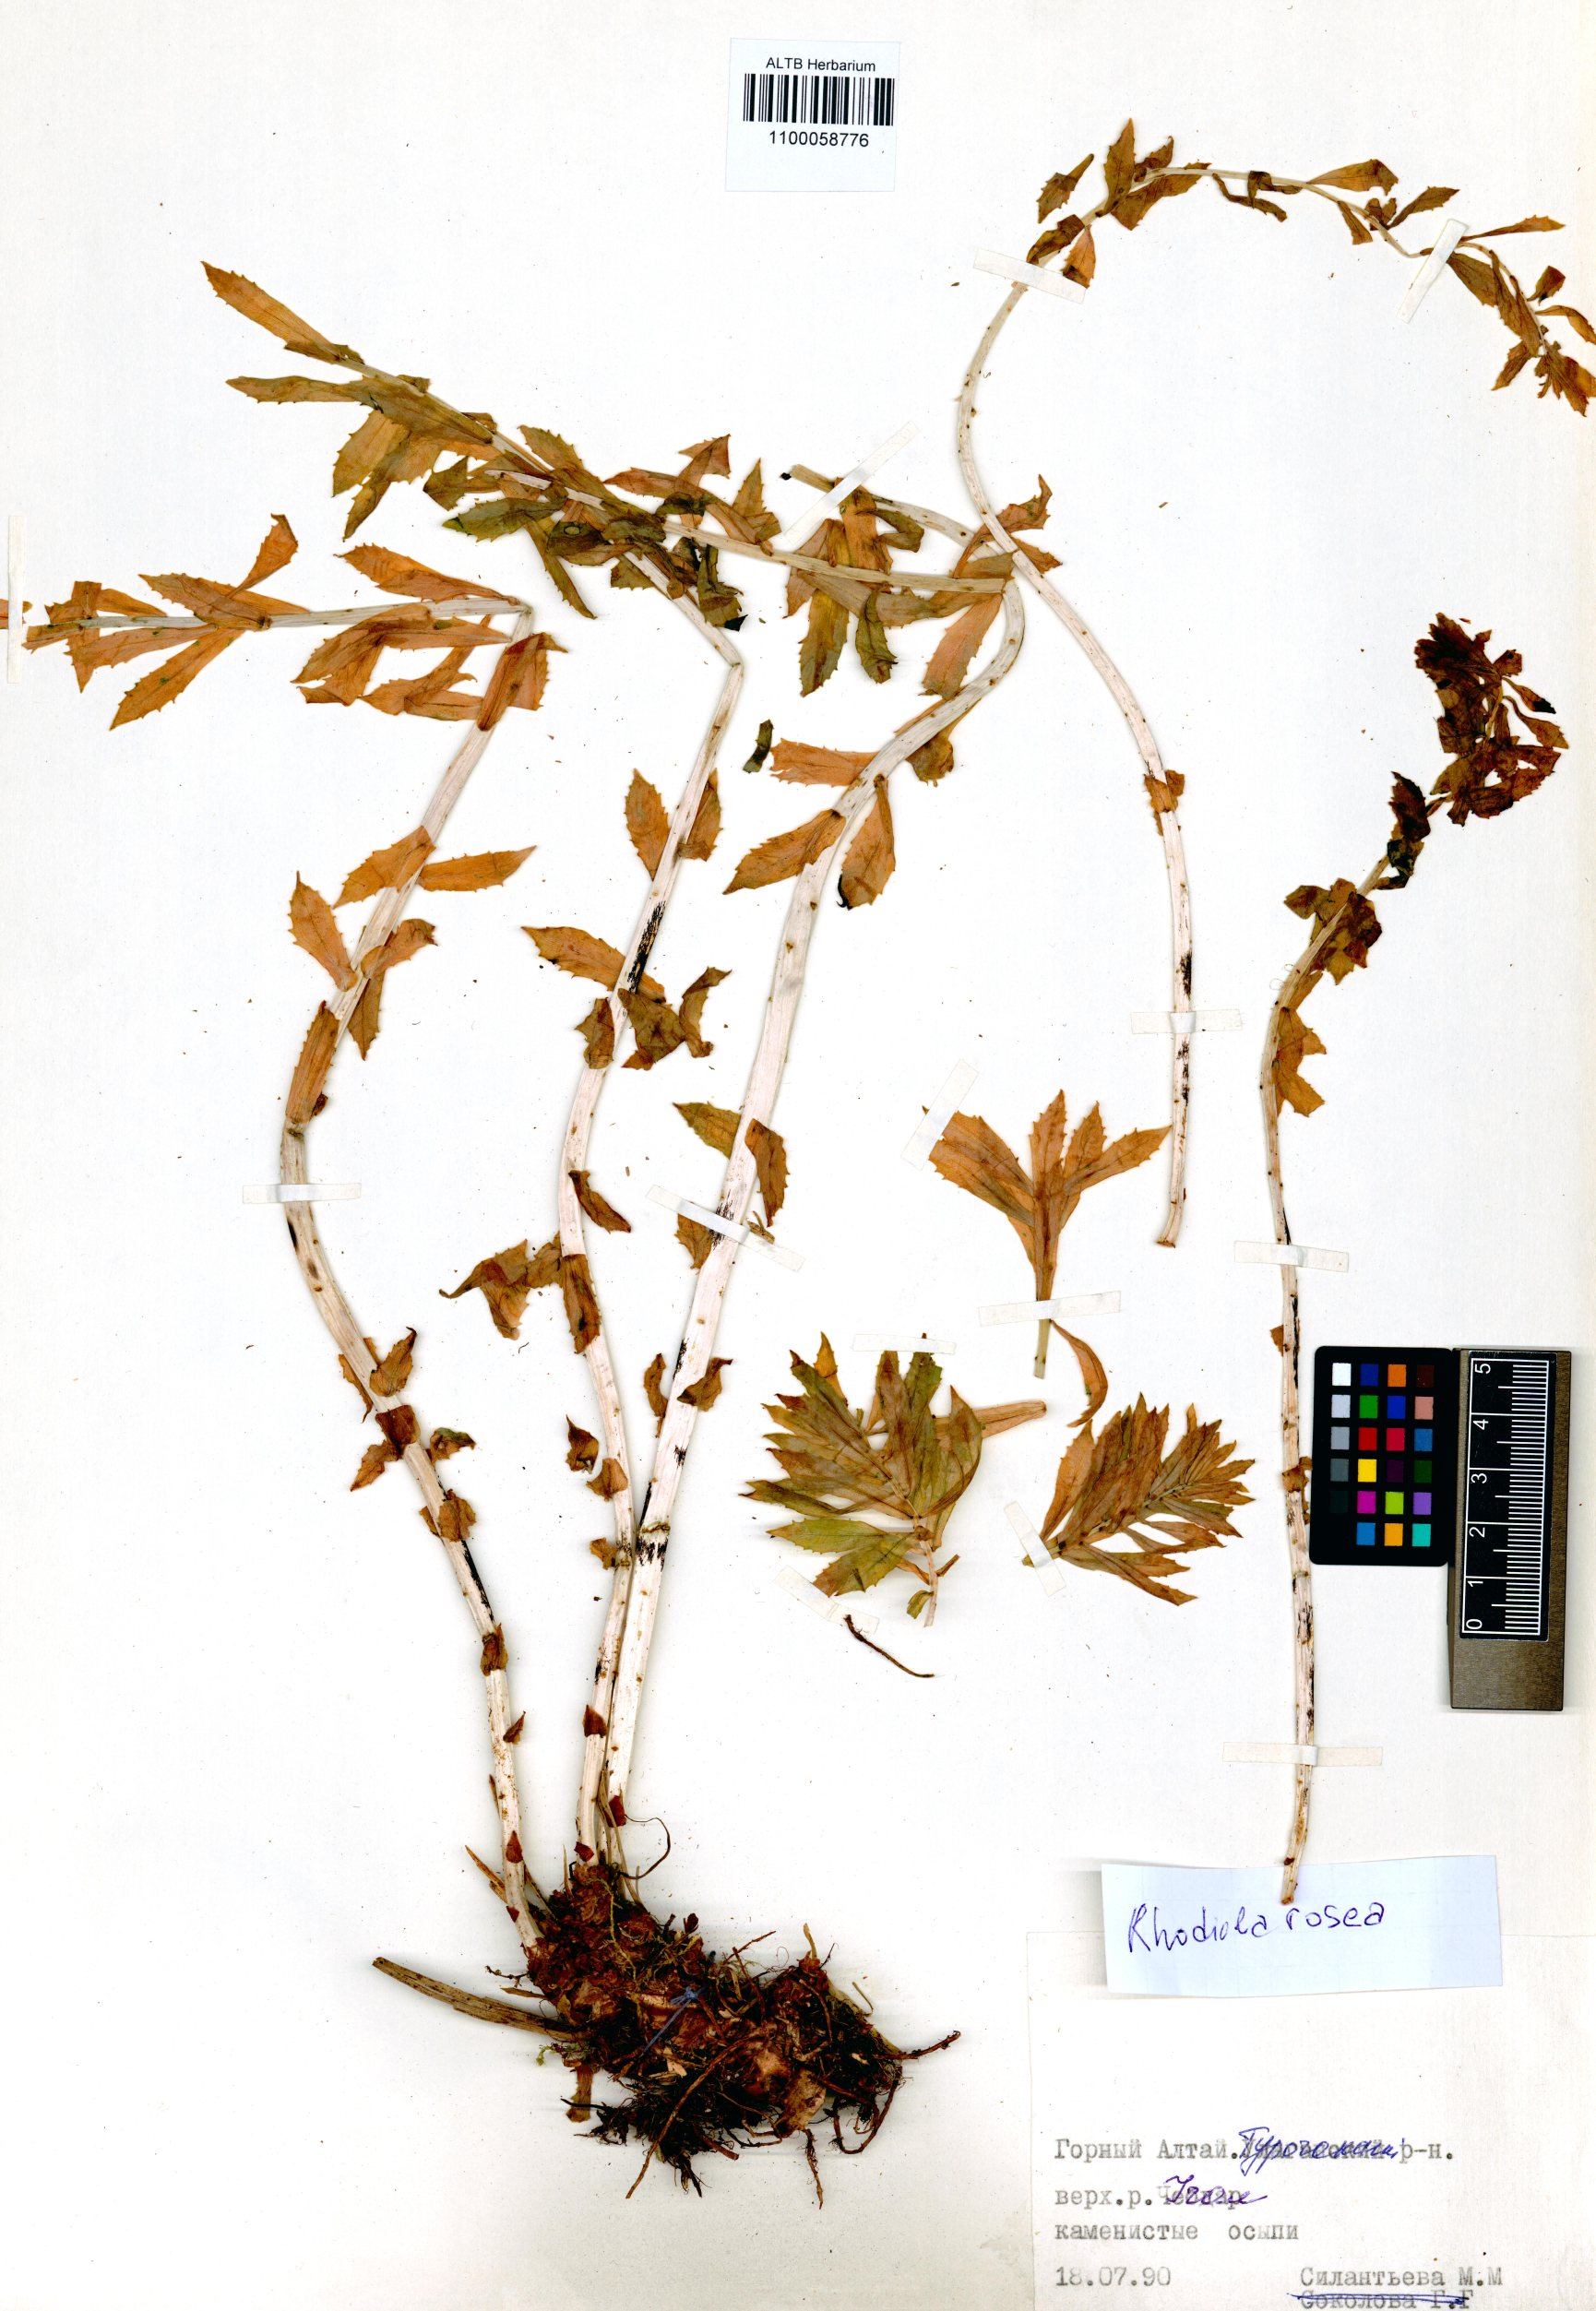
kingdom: Plantae
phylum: Tracheophyta
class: Magnoliopsida
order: Saxifragales
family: Crassulaceae
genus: Rhodiola
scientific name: Rhodiola rosea
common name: Roseroot
